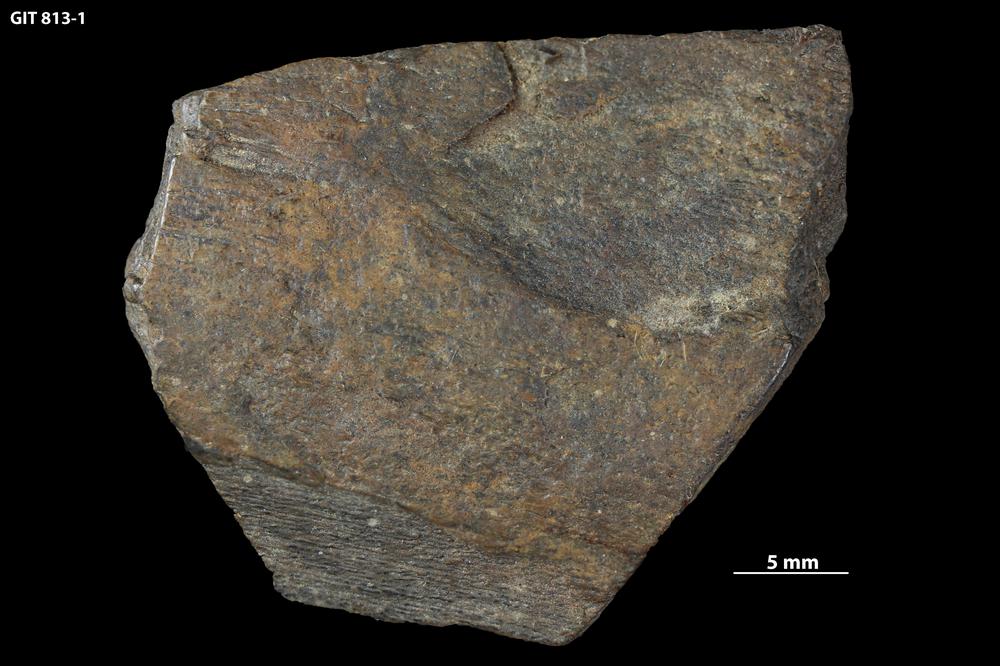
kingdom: Animalia
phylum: Chordata
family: Homostiidae
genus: Homostius
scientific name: Homostius
